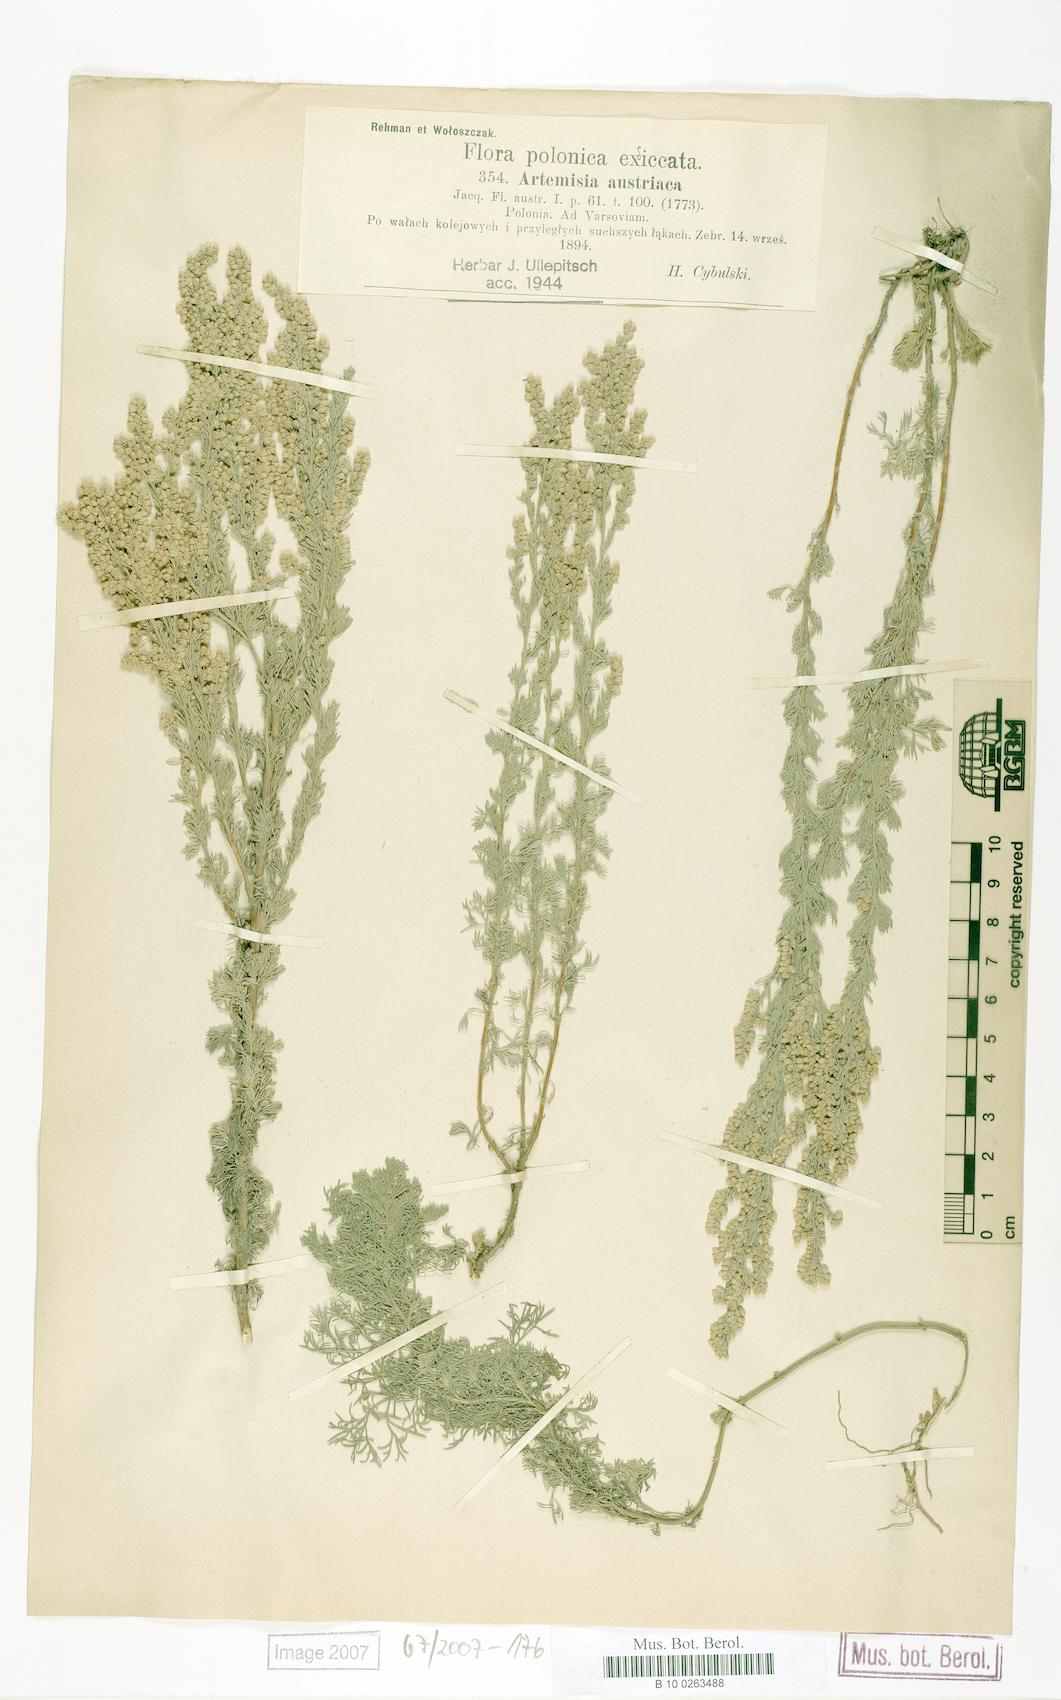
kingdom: Plantae
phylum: Tracheophyta
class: Magnoliopsida
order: Asterales
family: Asteraceae
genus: Artemisia
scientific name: Artemisia austriaca
